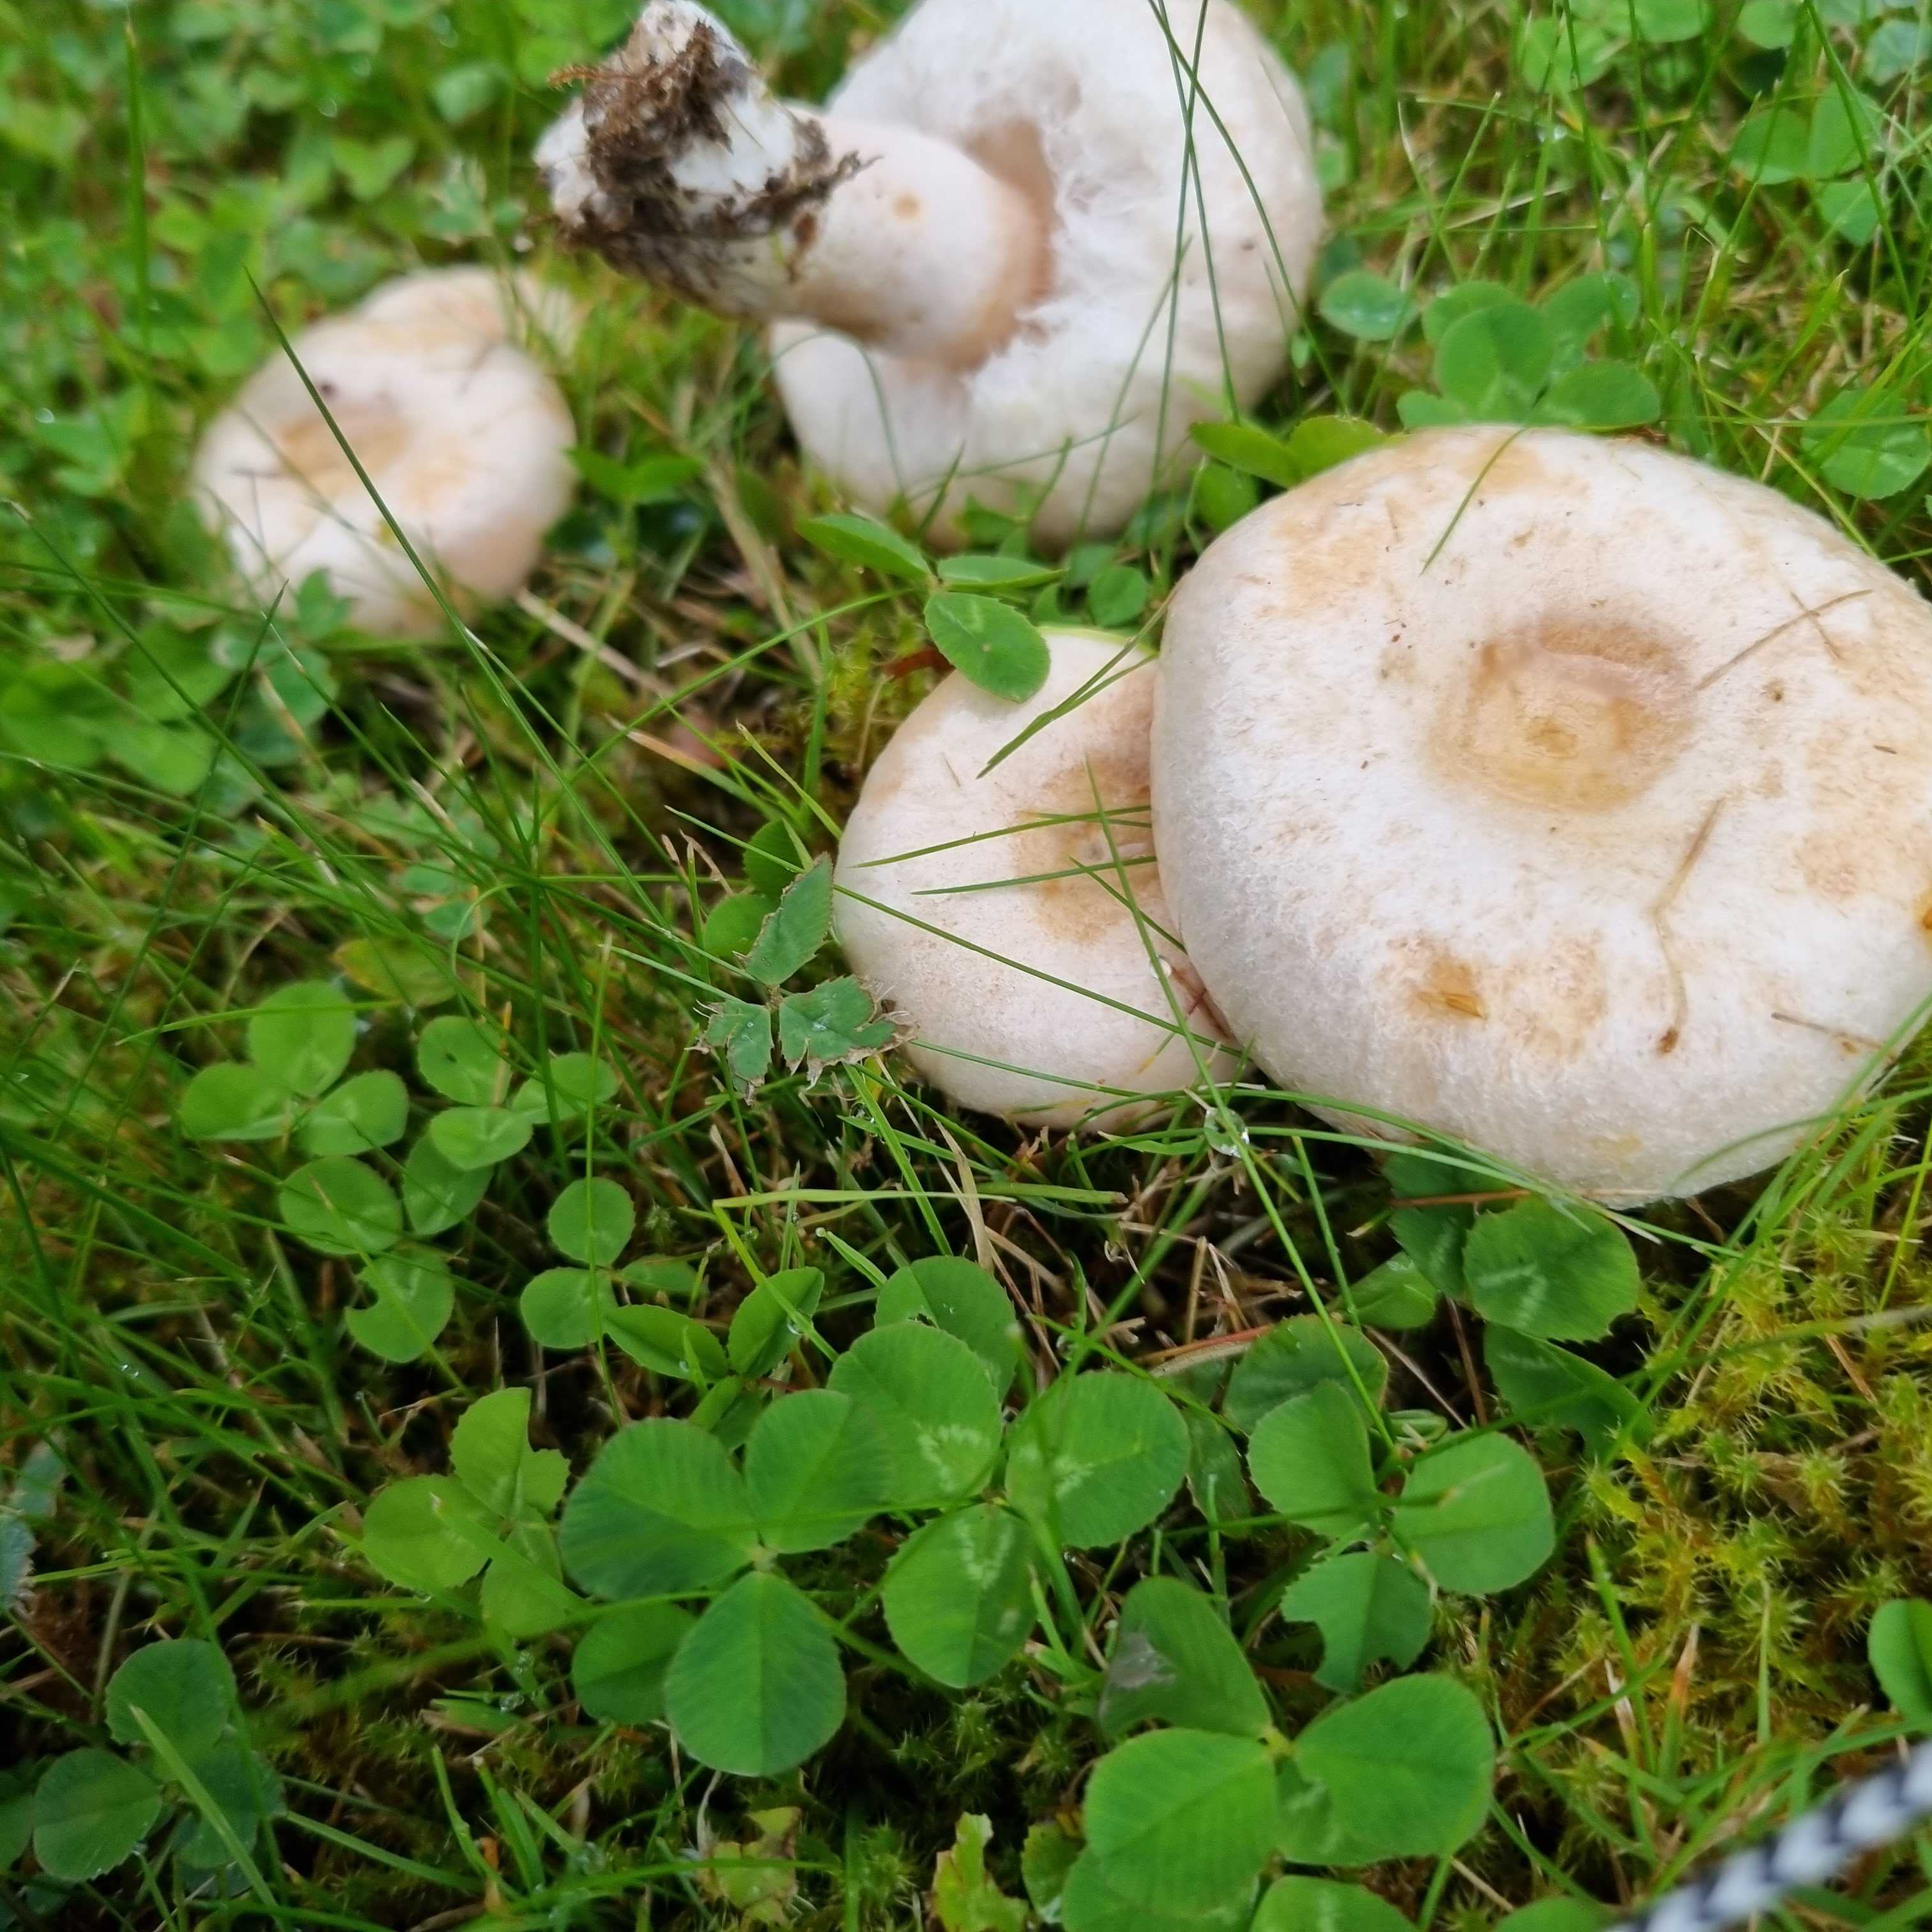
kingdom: Fungi
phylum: Basidiomycota
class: Agaricomycetes
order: Russulales
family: Russulaceae
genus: Lactarius
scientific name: Lactarius pubescens
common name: dunet mælkehat
